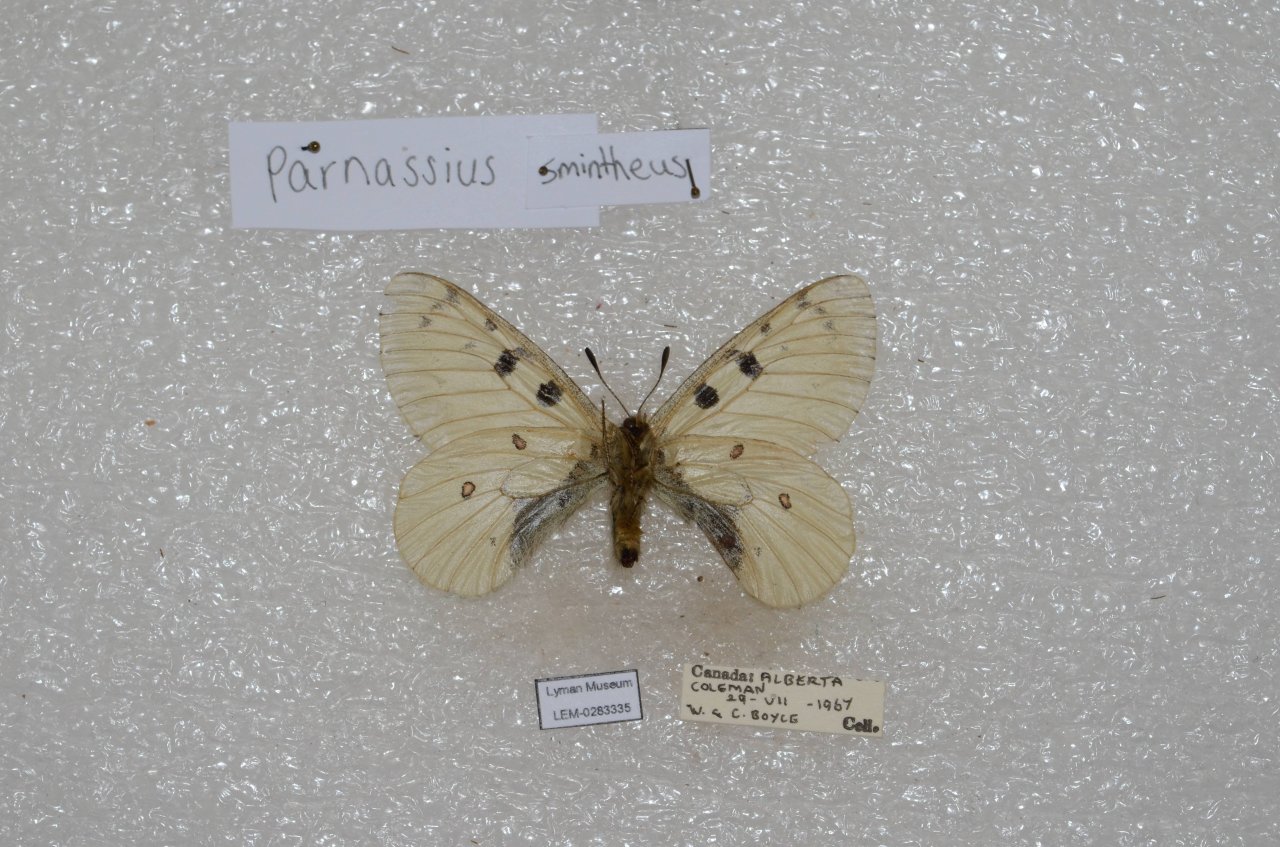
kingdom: Animalia
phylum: Arthropoda
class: Insecta
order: Lepidoptera
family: Papilionidae
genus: Parnassius
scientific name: Parnassius smintheus
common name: Rocky Mountain Parnassian
